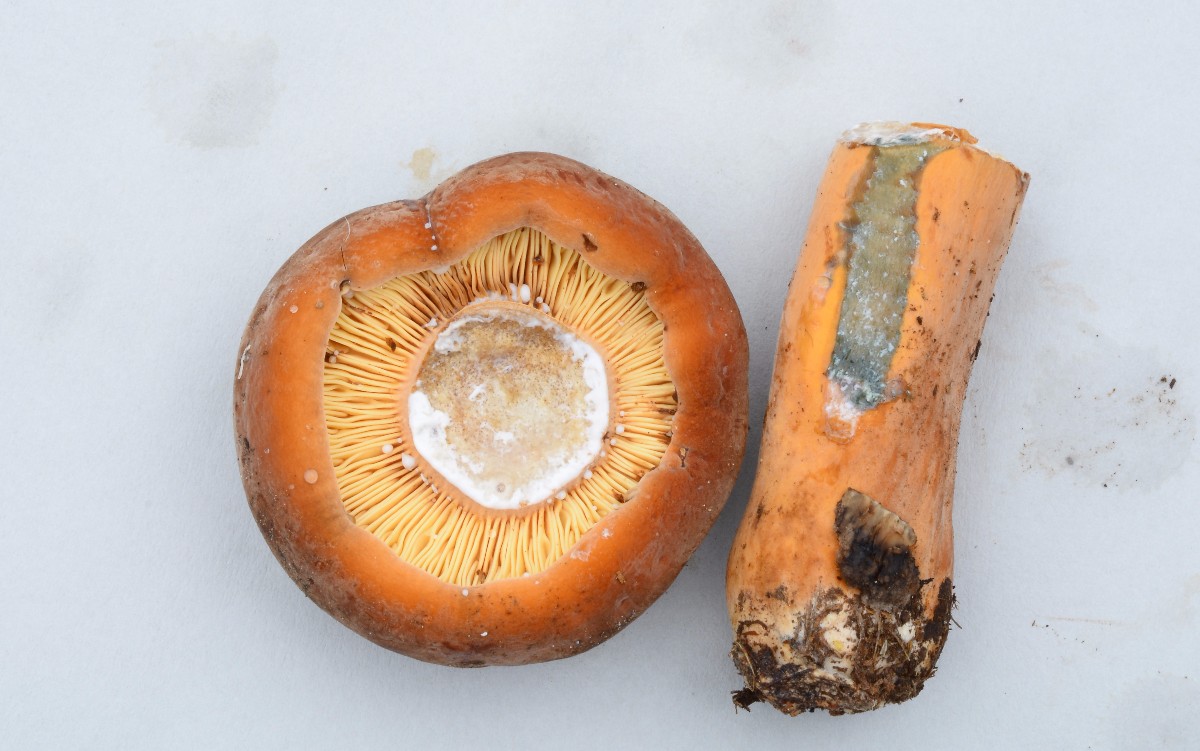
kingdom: Fungi
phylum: Basidiomycota
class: Agaricomycetes
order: Russulales
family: Russulaceae
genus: Lactifluus
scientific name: Lactifluus volemus
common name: spiselig mælkehat
